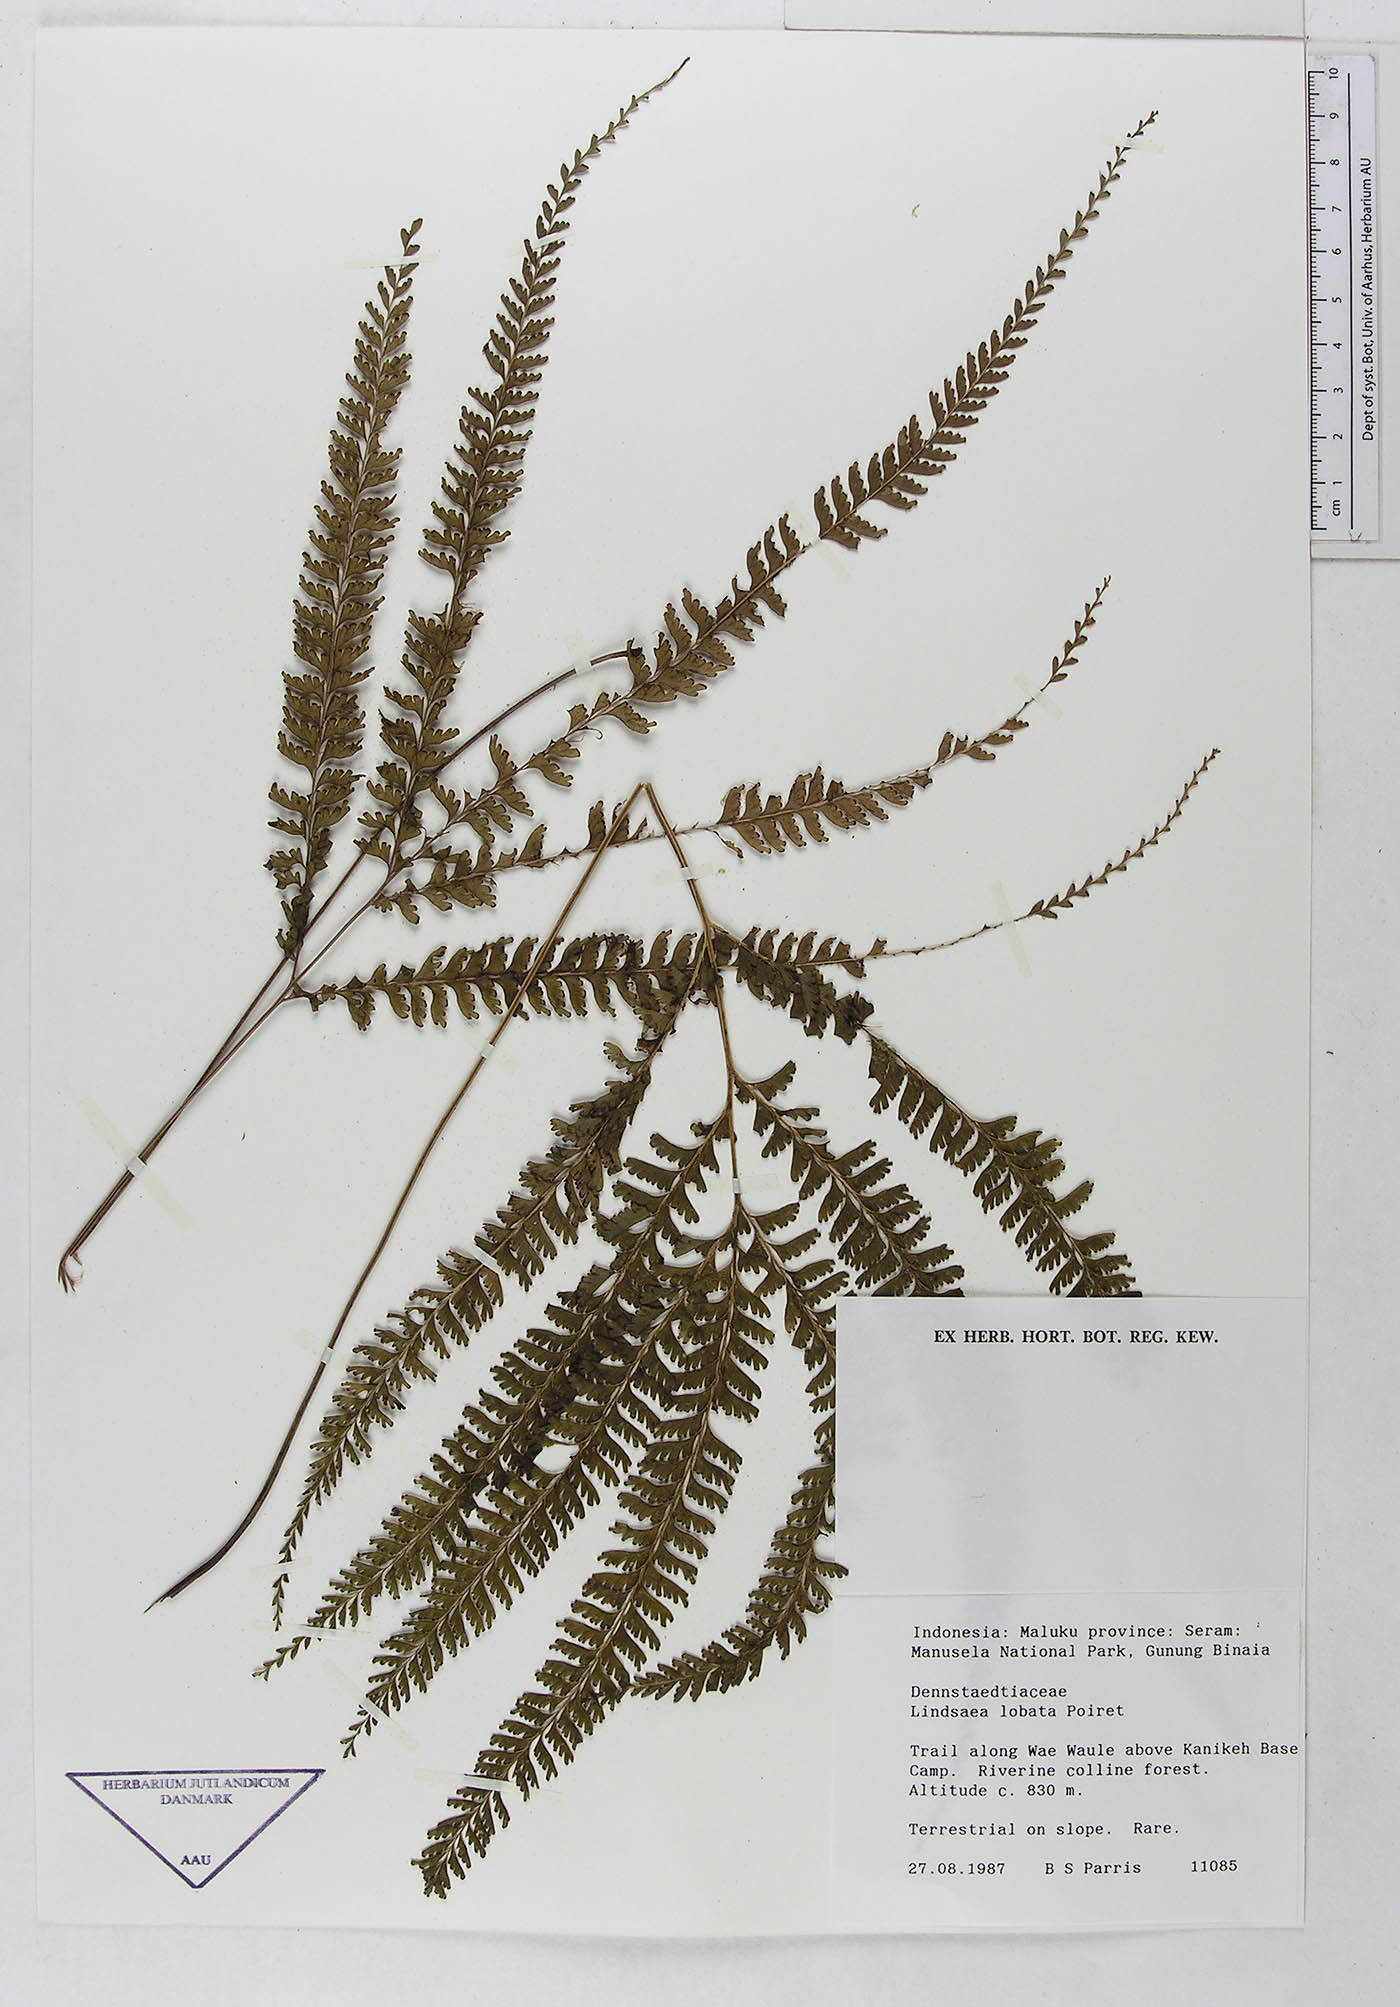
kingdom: Plantae
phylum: Tracheophyta
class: Polypodiopsida
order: Polypodiales
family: Lindsaeaceae
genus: Lindsaea
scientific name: Lindsaea lobata
